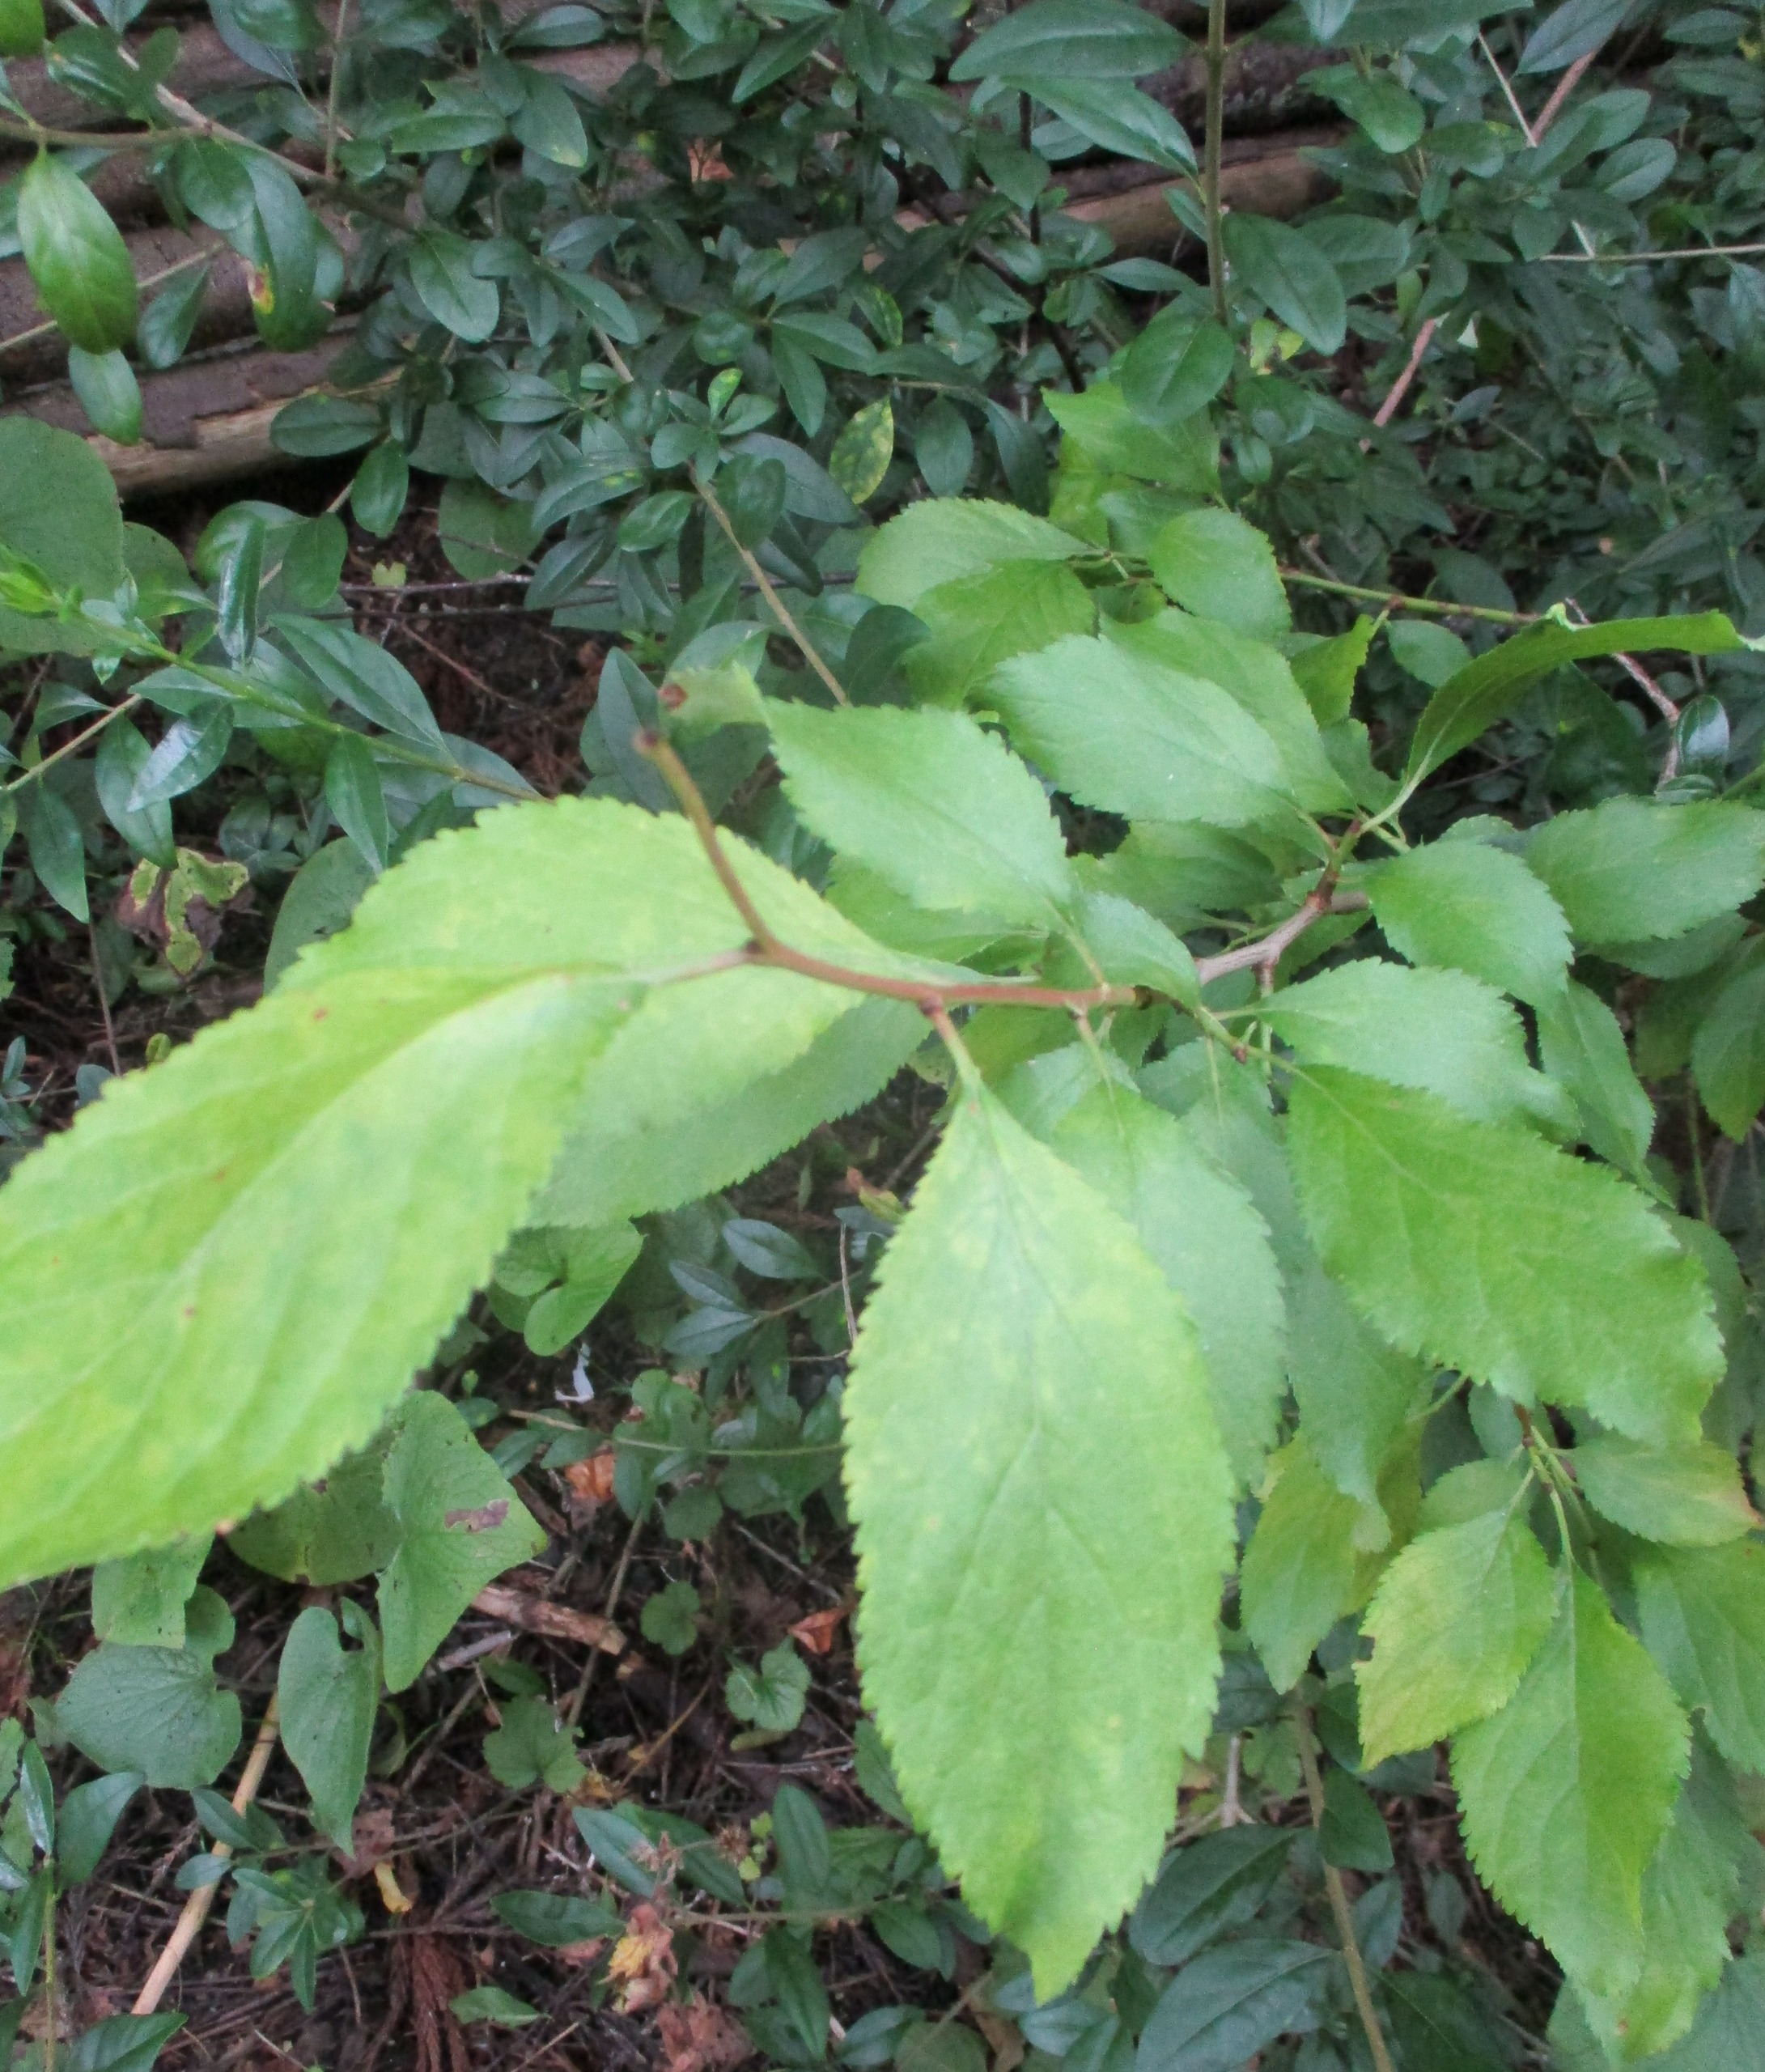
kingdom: Plantae
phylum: Tracheophyta
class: Magnoliopsida
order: Rosales
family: Rosaceae
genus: Prunus
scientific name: Prunus cerasifera
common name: Mirabel
